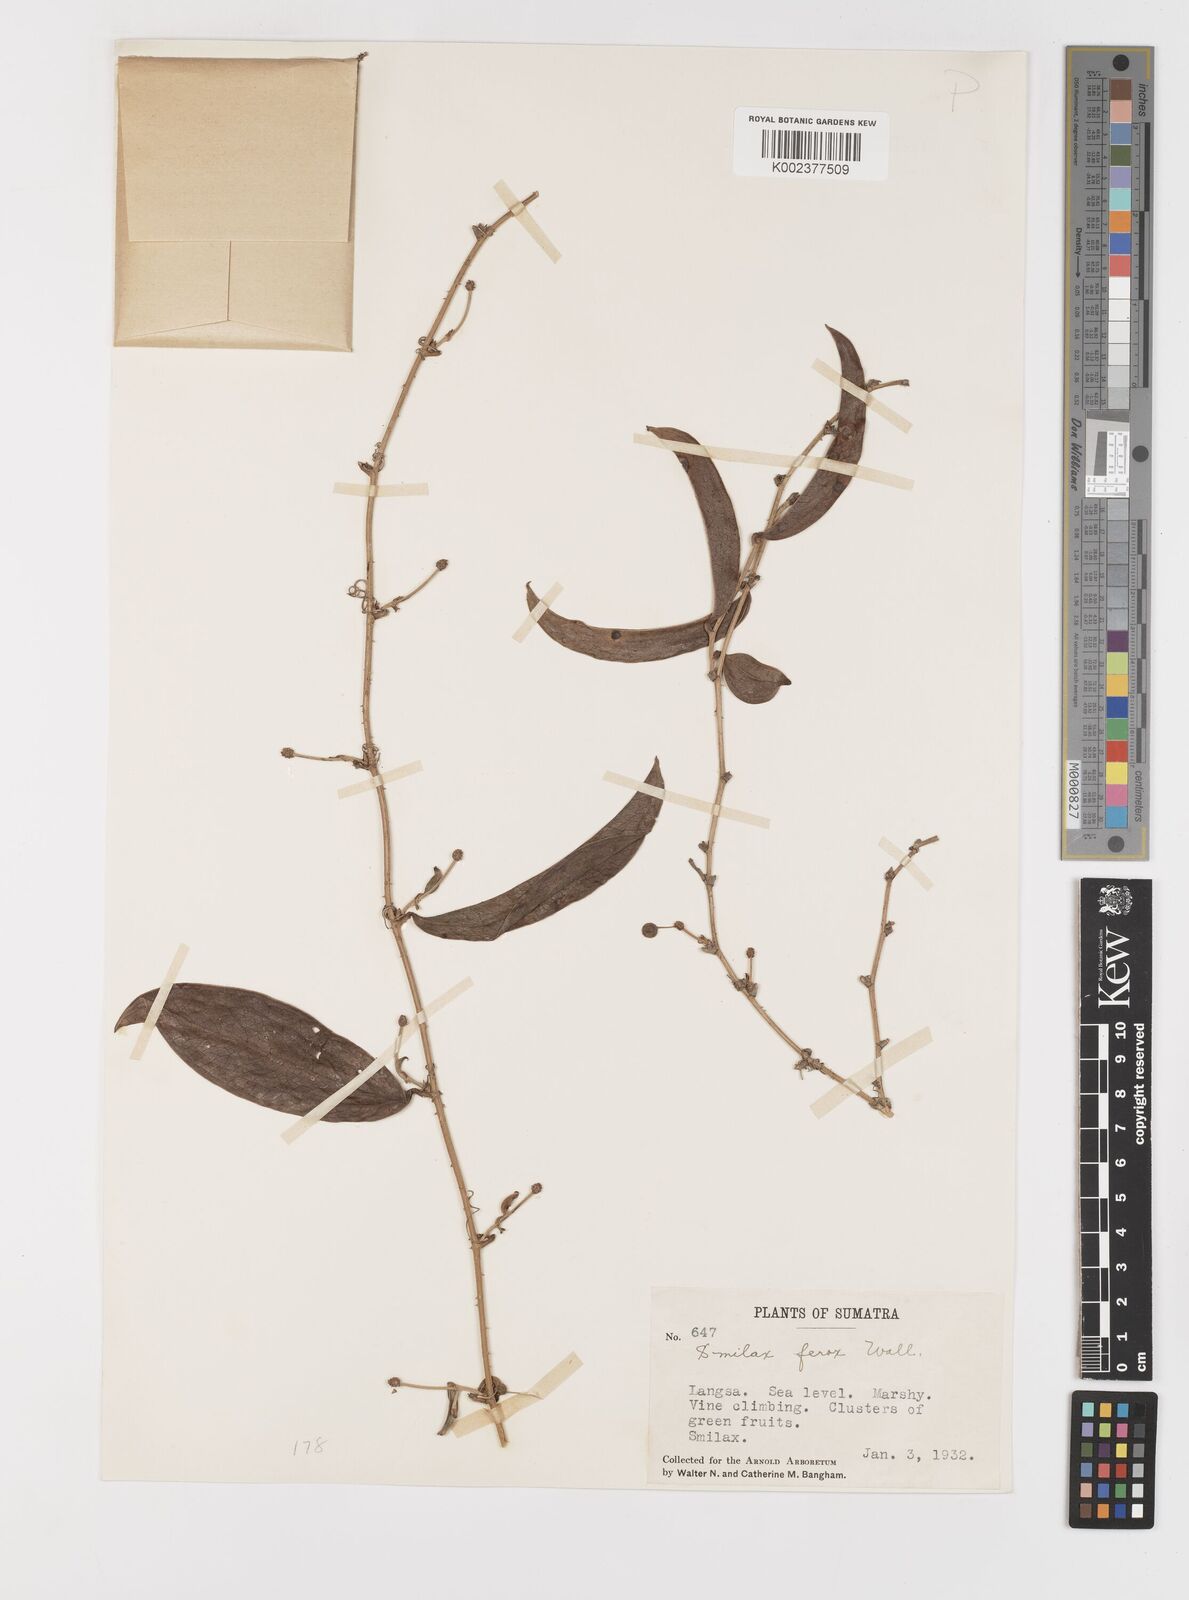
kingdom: Plantae
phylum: Tracheophyta
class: Liliopsida
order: Liliales
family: Smilacaceae
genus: Smilax
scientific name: Smilax ferox
